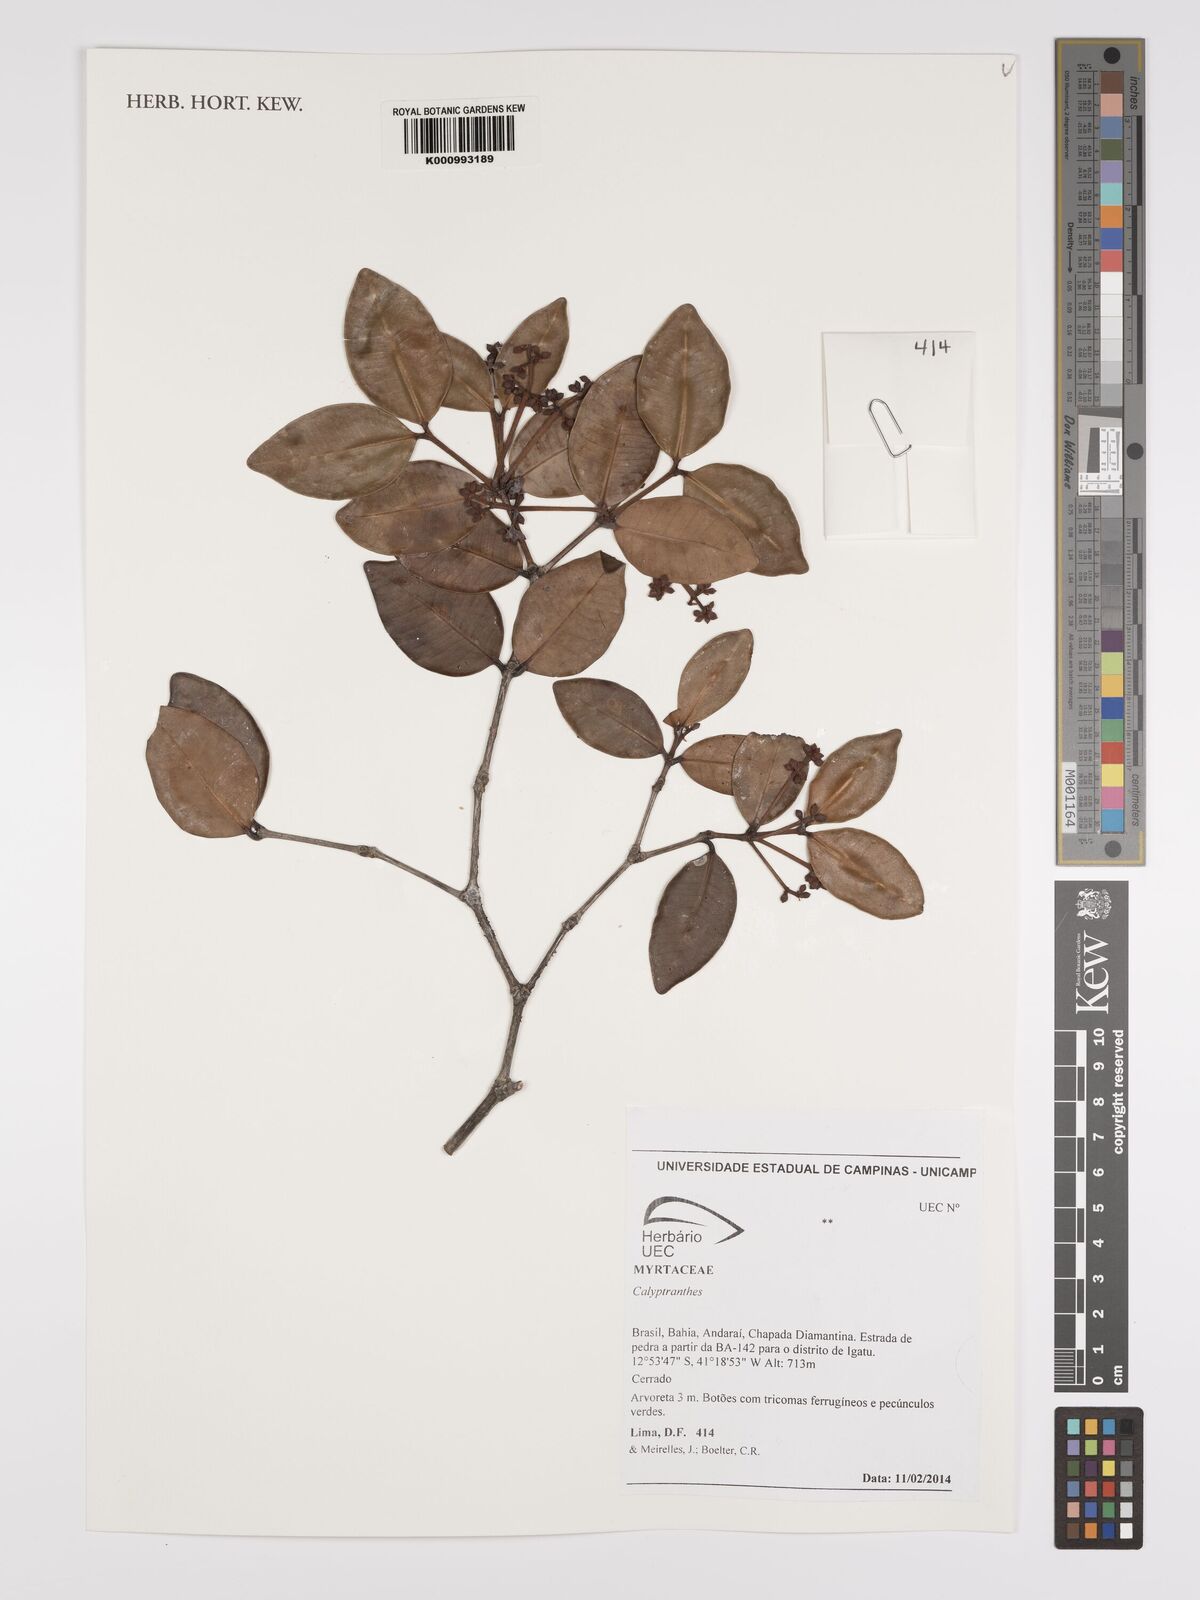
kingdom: Plantae
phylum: Tracheophyta
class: Magnoliopsida
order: Myrtales
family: Myrtaceae
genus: Calyptranthes
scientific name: Calyptranthes
